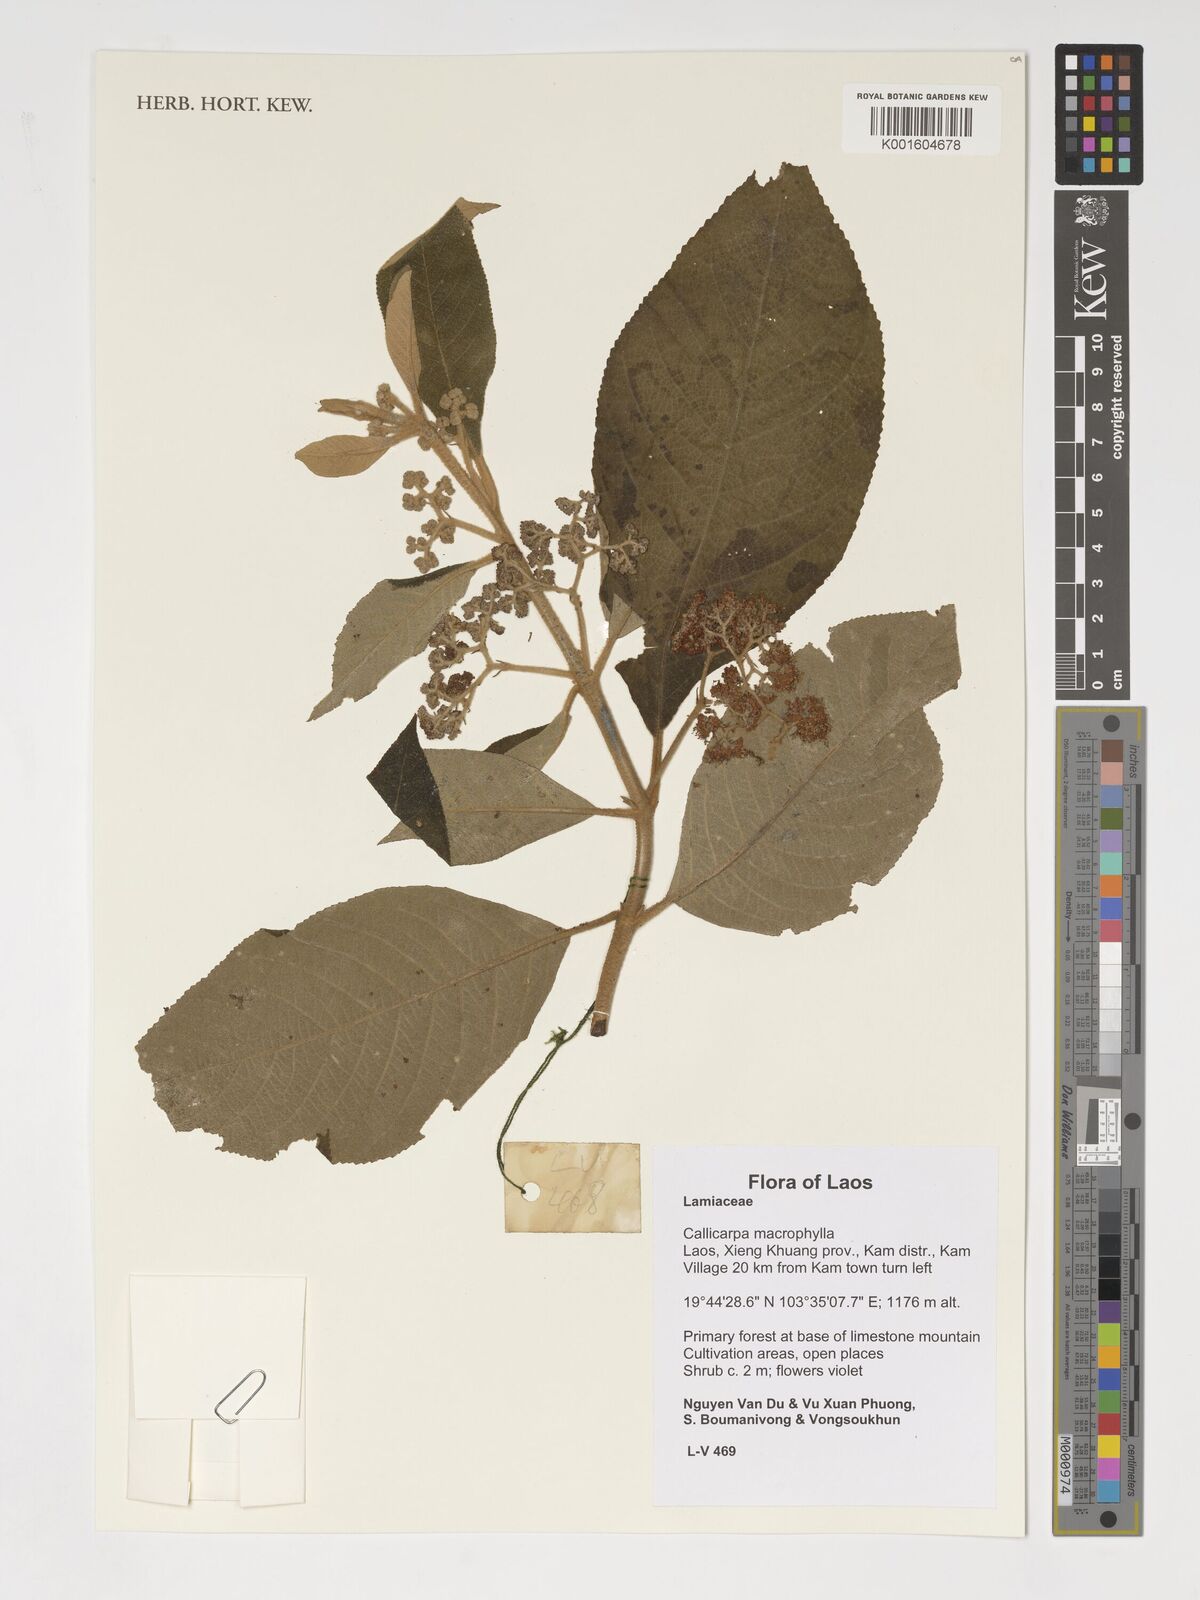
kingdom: Plantae
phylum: Tracheophyta
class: Magnoliopsida
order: Lamiales
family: Lamiaceae
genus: Callicarpa
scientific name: Callicarpa macrophylla
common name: Urn-fruit beauty-berry
